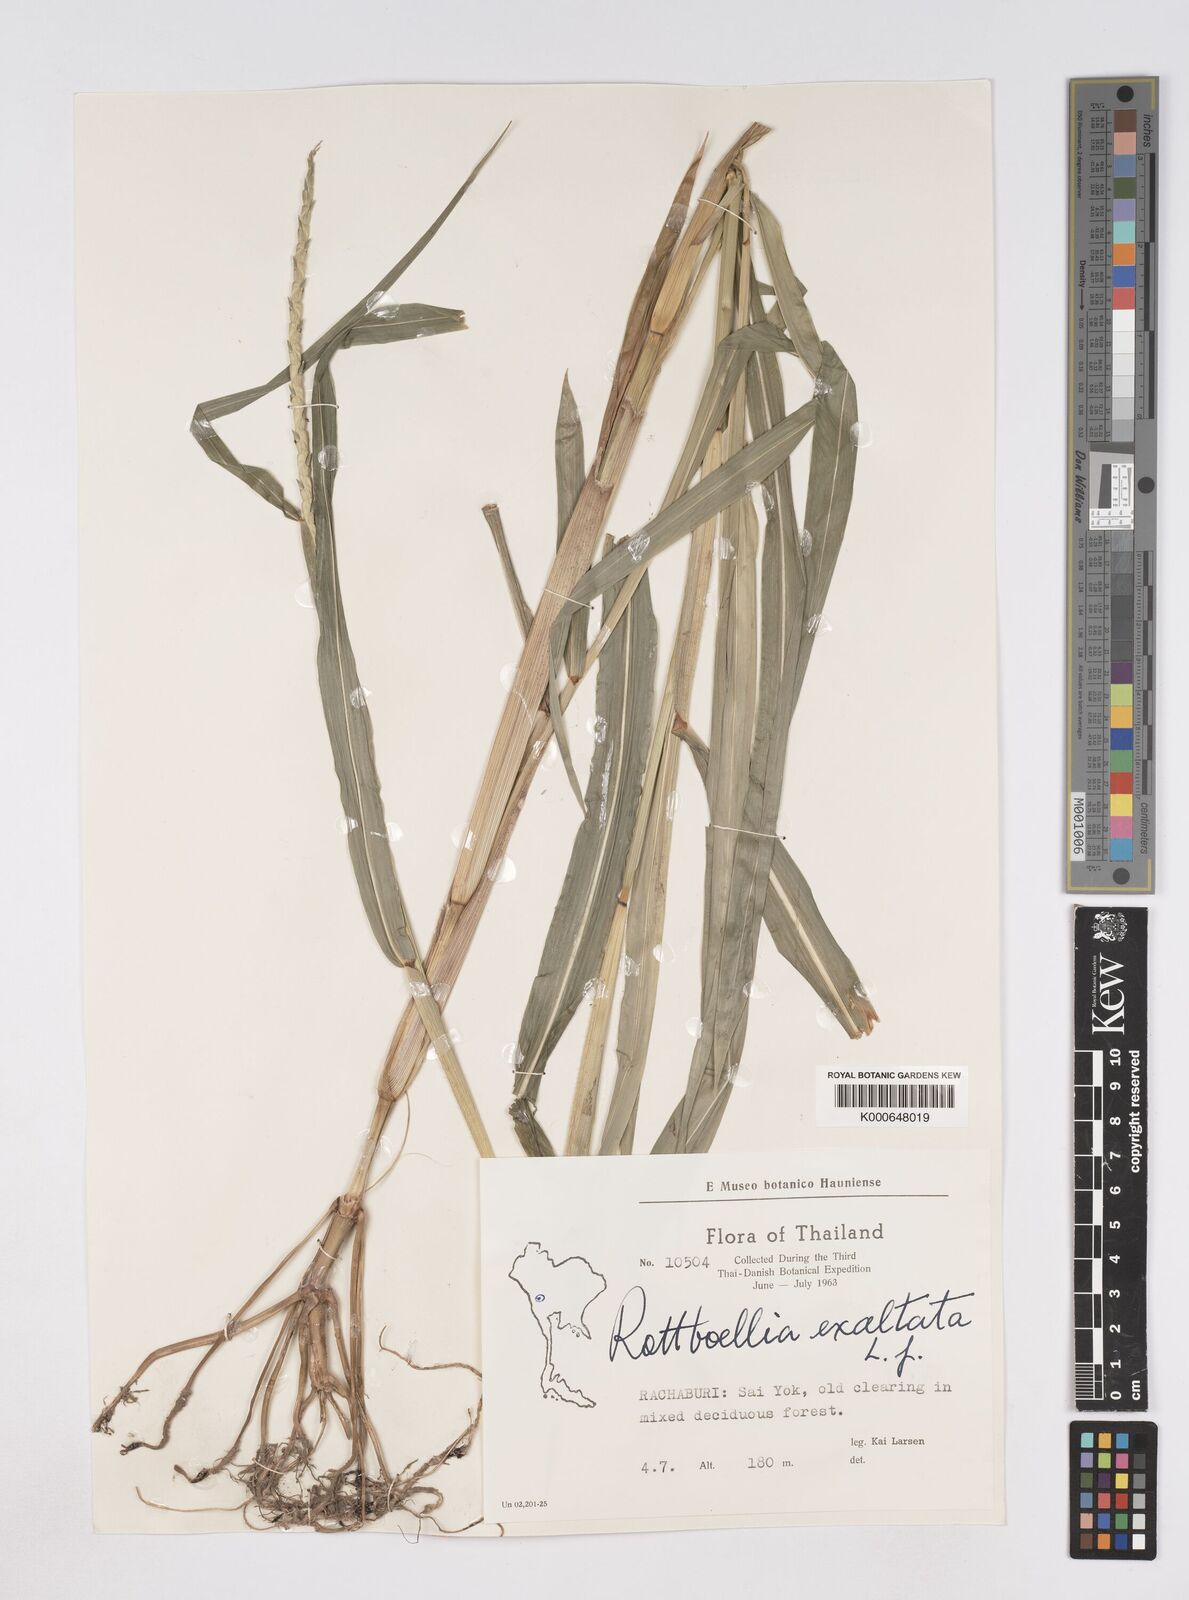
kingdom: Plantae
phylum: Tracheophyta
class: Liliopsida
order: Poales
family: Poaceae
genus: Rottboellia
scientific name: Rottboellia cochinchinensis
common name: Itchgrass
